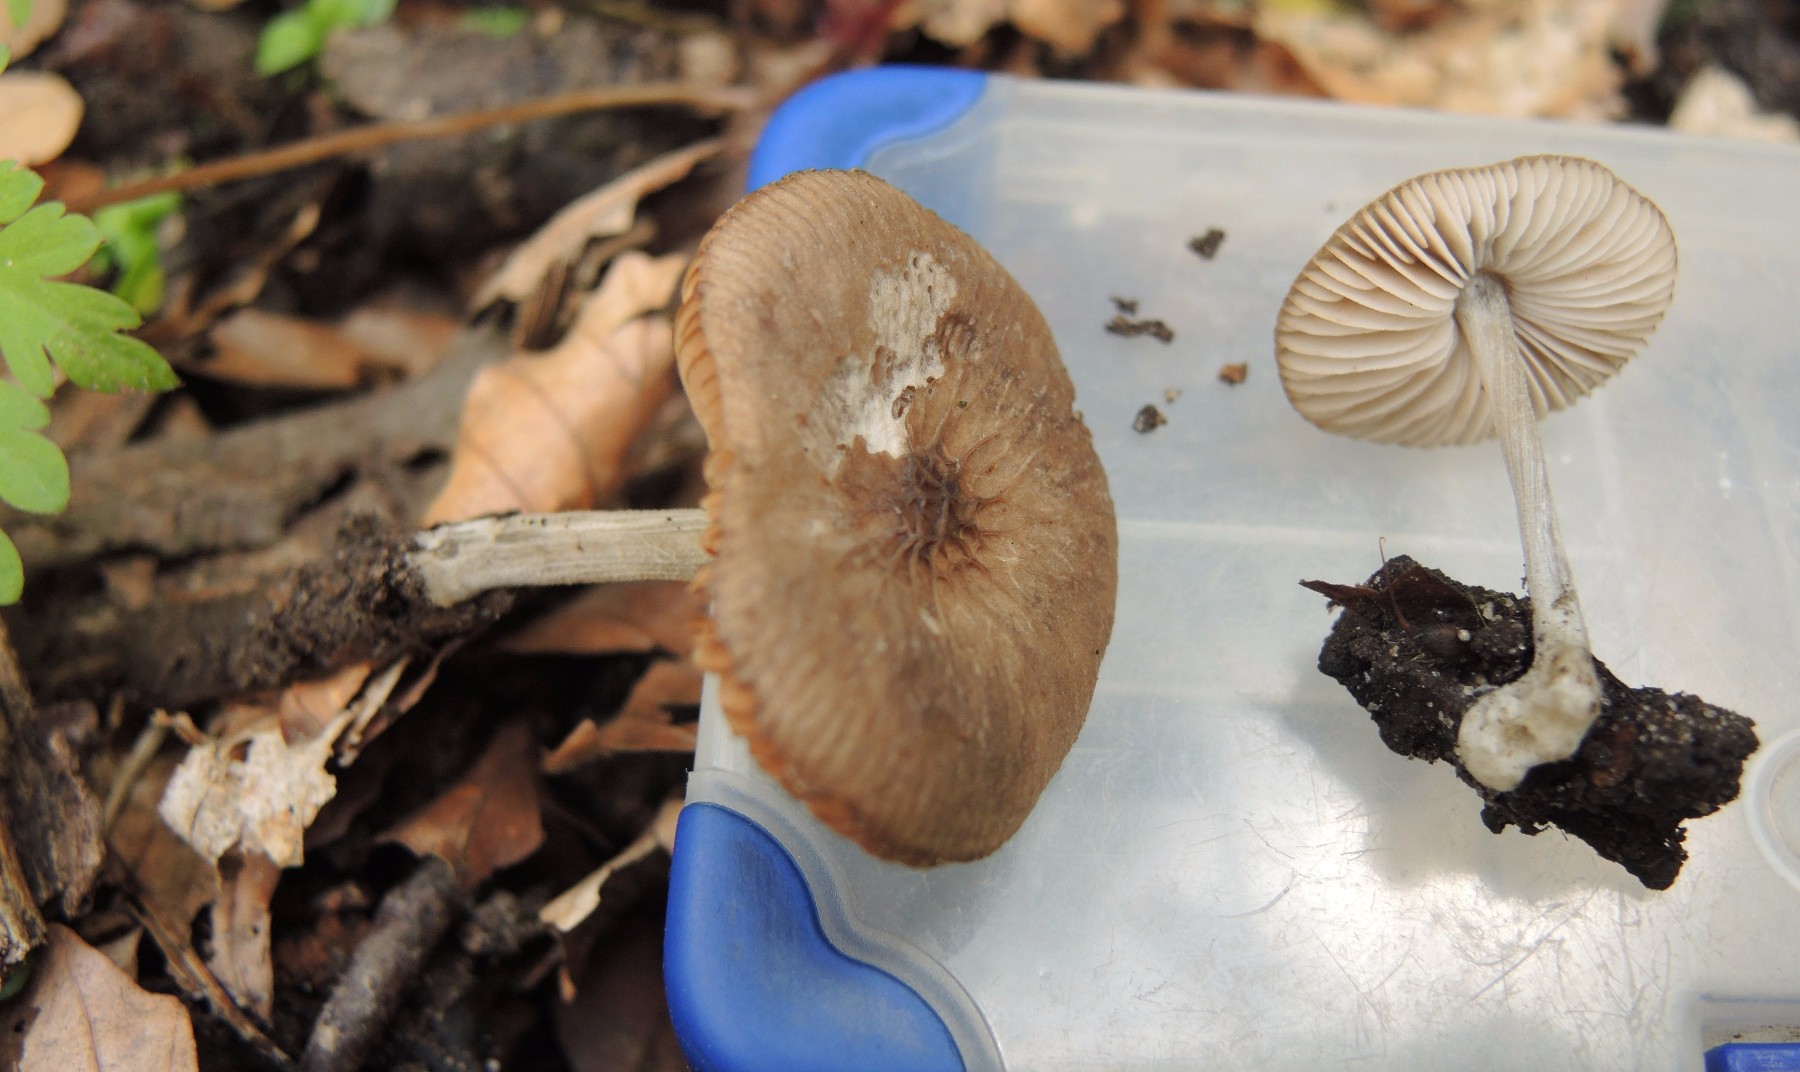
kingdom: Fungi
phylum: Basidiomycota
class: Agaricomycetes
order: Agaricales
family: Pluteaceae
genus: Pluteus
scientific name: Pluteus
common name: gråstokket skærmhat
